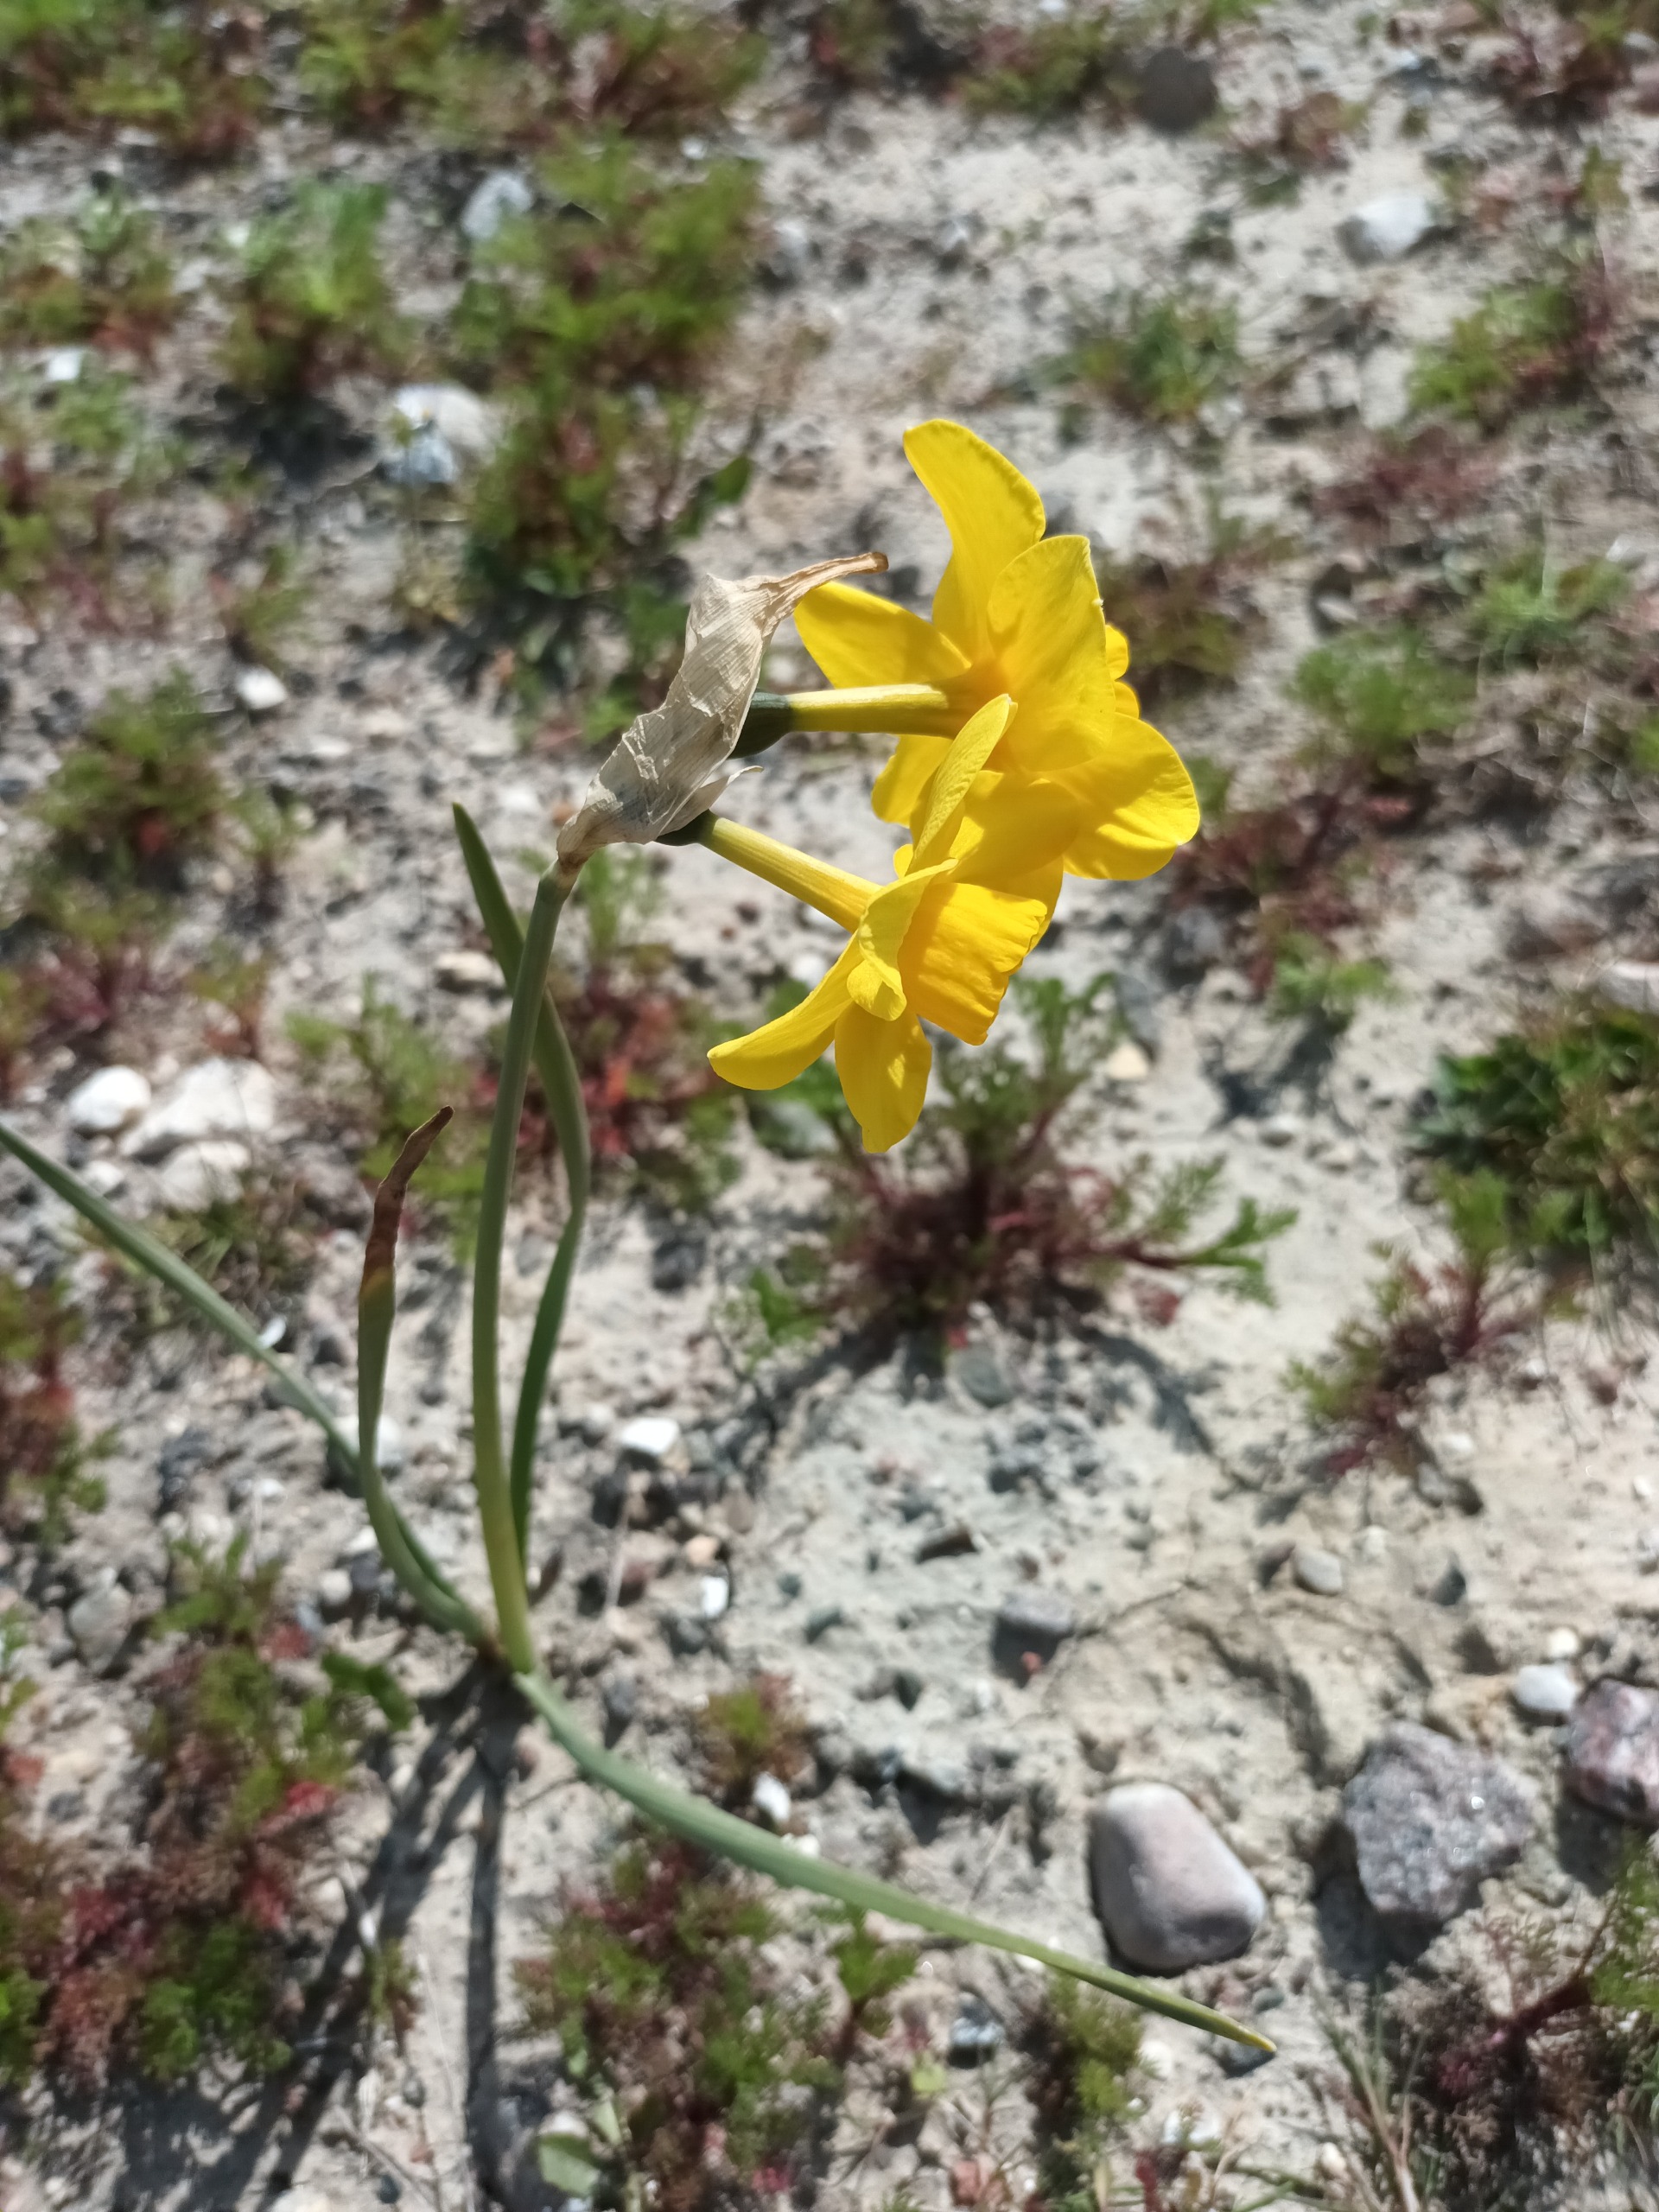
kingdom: Plantae
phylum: Tracheophyta
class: Liliopsida
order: Asparagales
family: Amaryllidaceae
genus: Narcissus
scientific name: Narcissus odorus
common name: Duftnarcis
